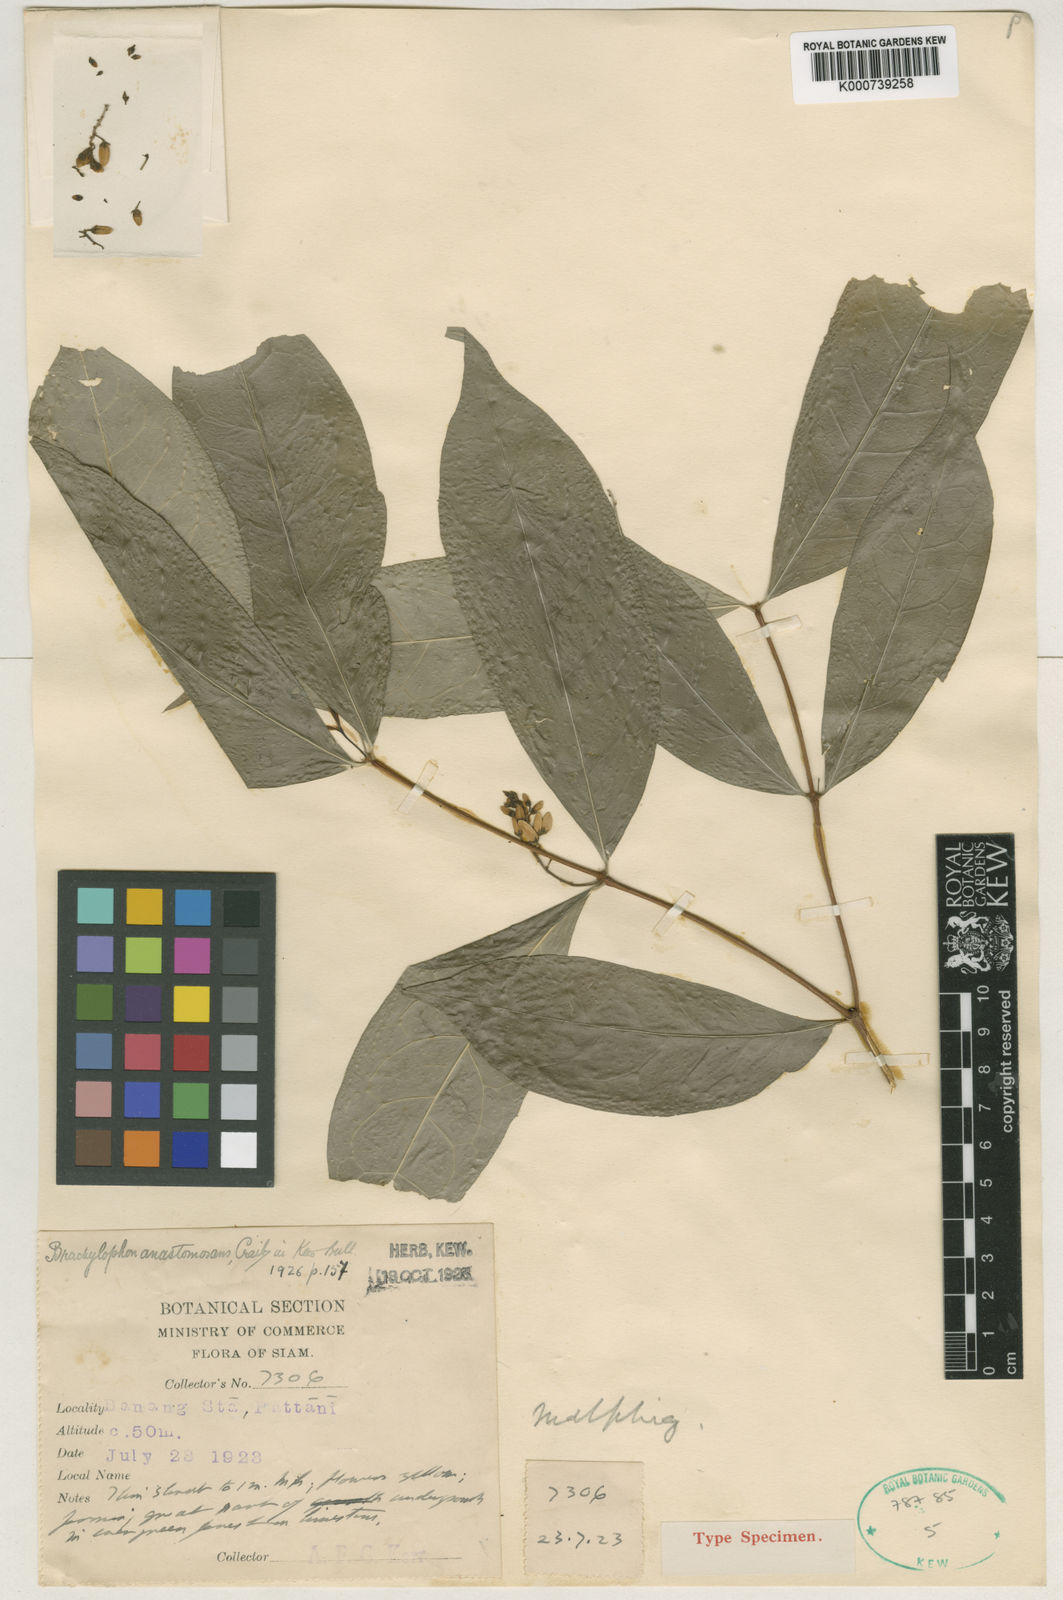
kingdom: Plantae
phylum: Tracheophyta
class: Magnoliopsida
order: Malpighiales
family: Malpighiaceae
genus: Brachylophon
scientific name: Brachylophon anastomosans
